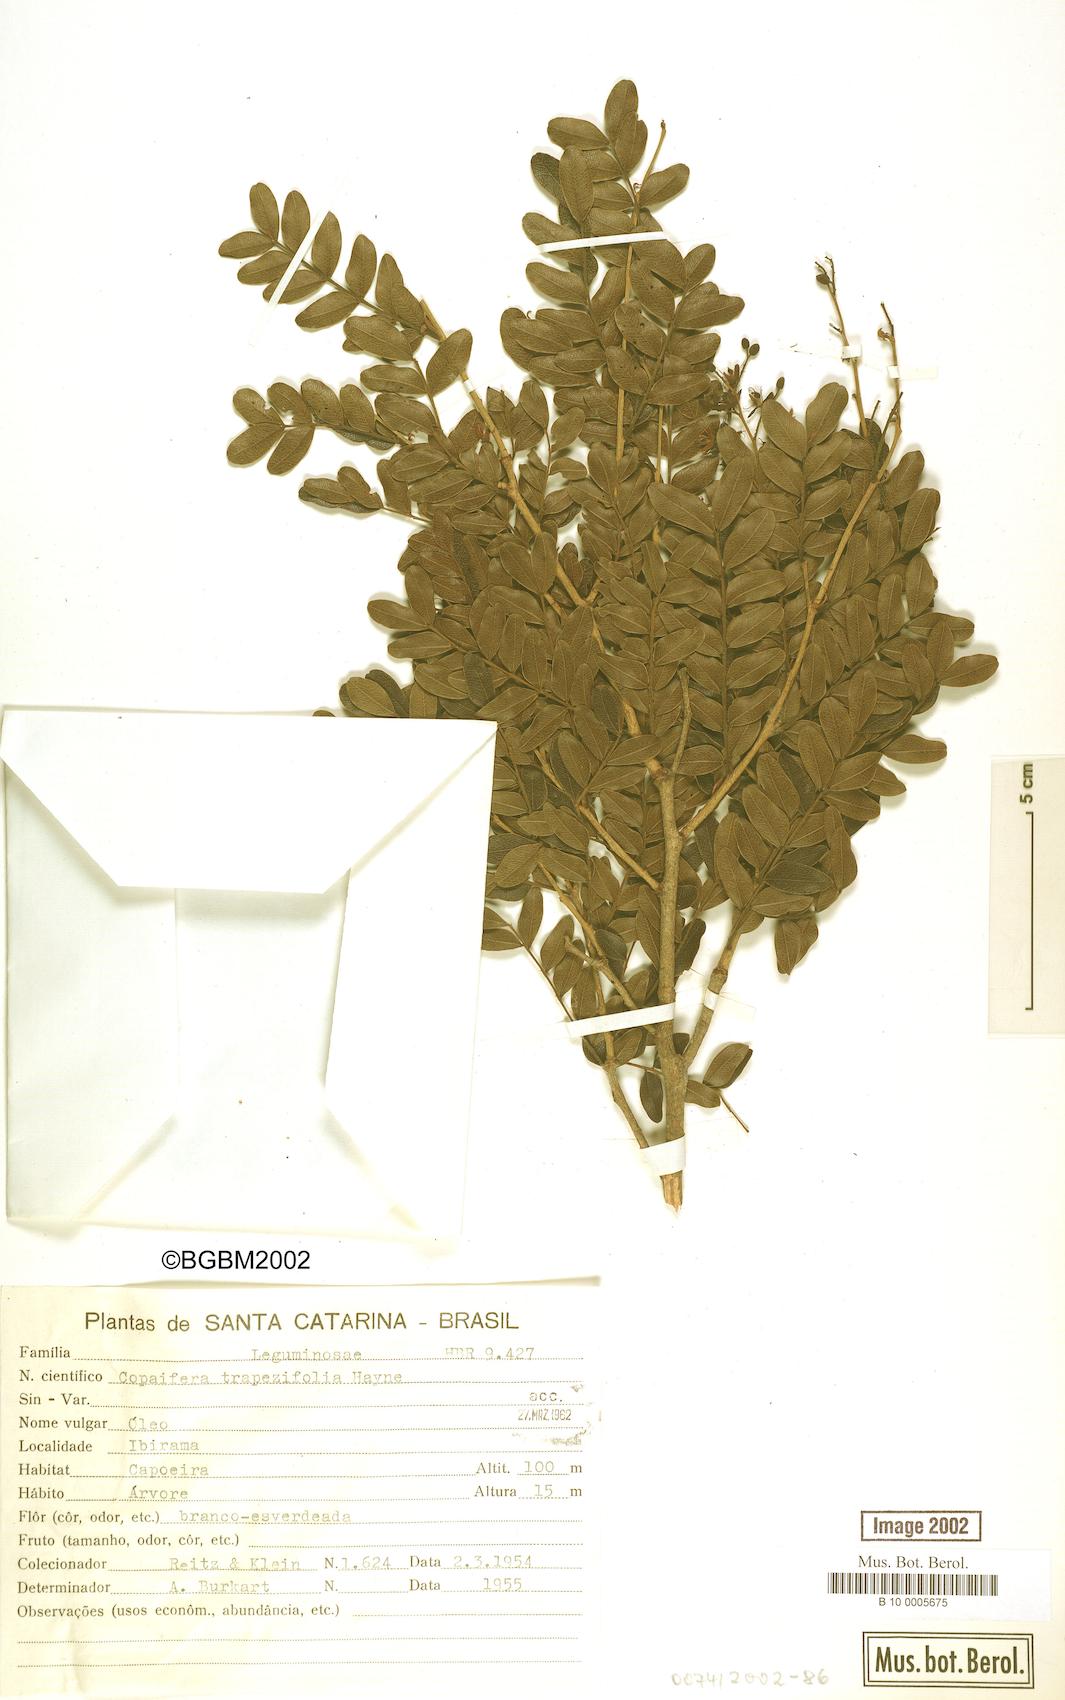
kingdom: Plantae
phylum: Tracheophyta
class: Magnoliopsida
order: Fabales
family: Fabaceae
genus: Copaifera
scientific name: Copaifera trapezifolia
